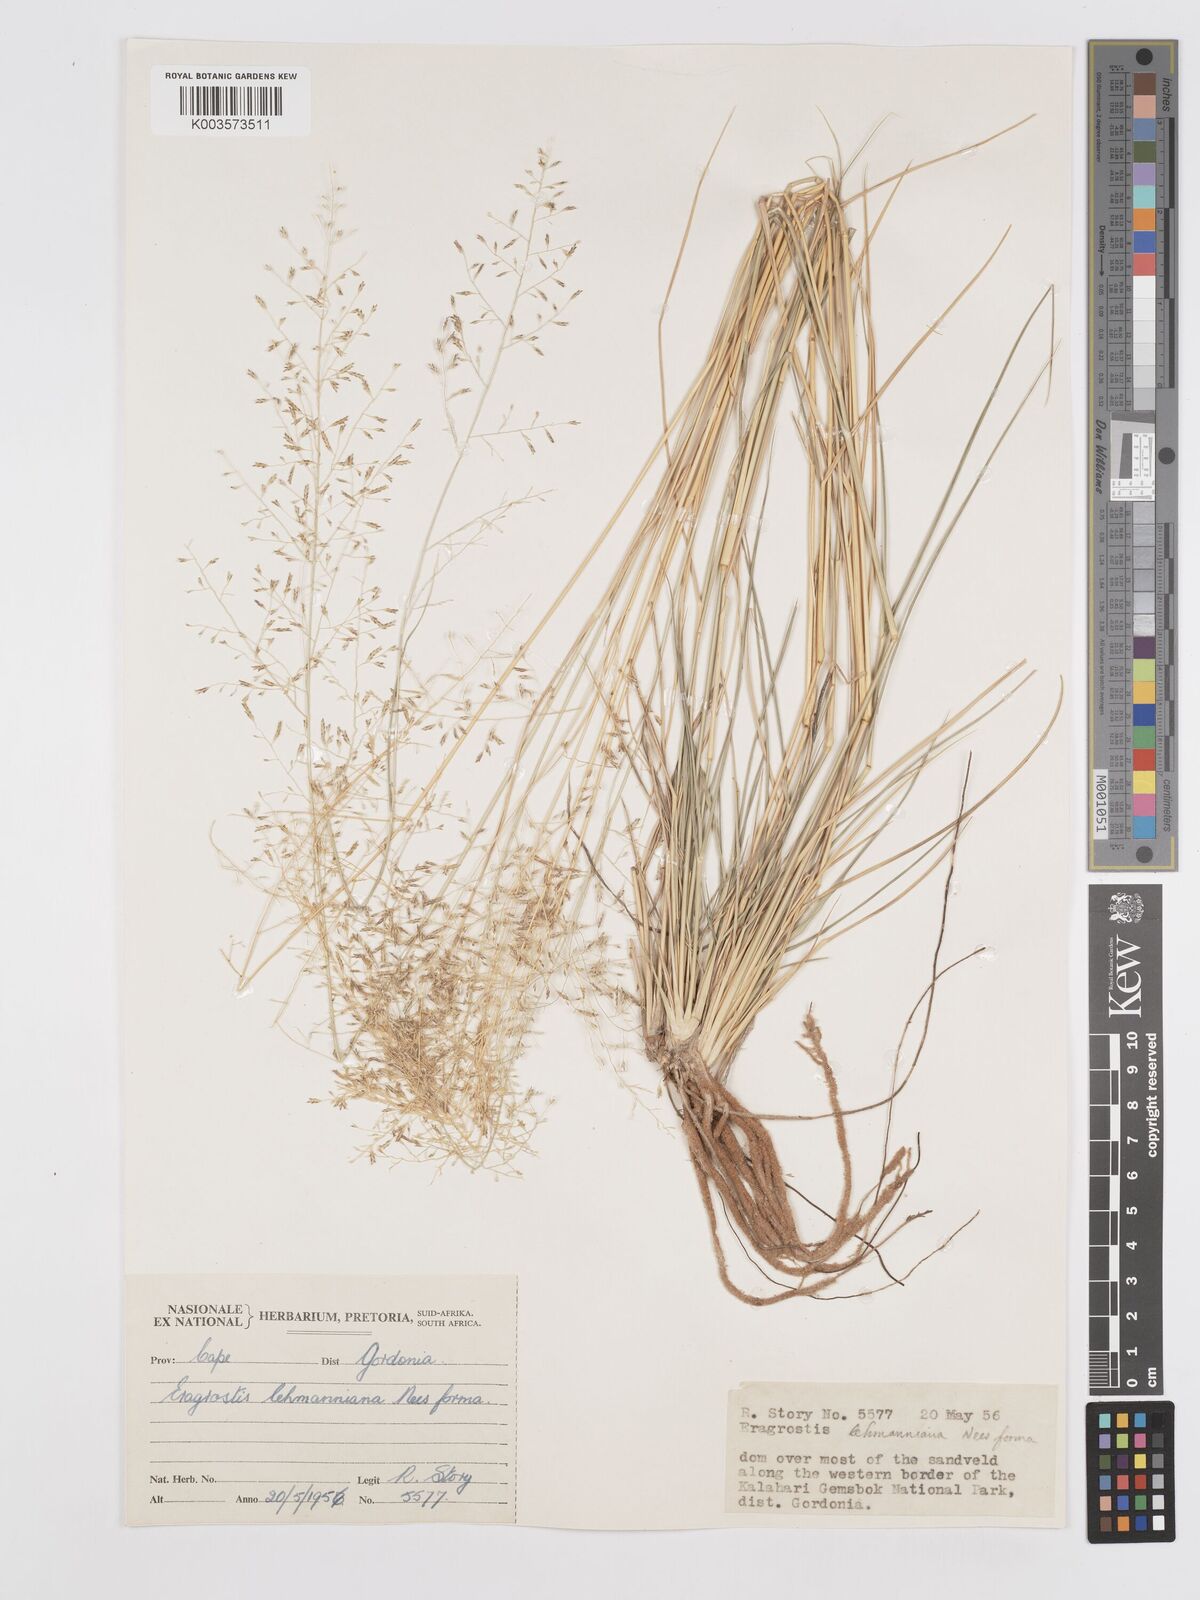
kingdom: Plantae
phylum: Tracheophyta
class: Liliopsida
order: Poales
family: Poaceae
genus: Eragrostis
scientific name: Eragrostis lehmanniana
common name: Lehmann lovegrass
